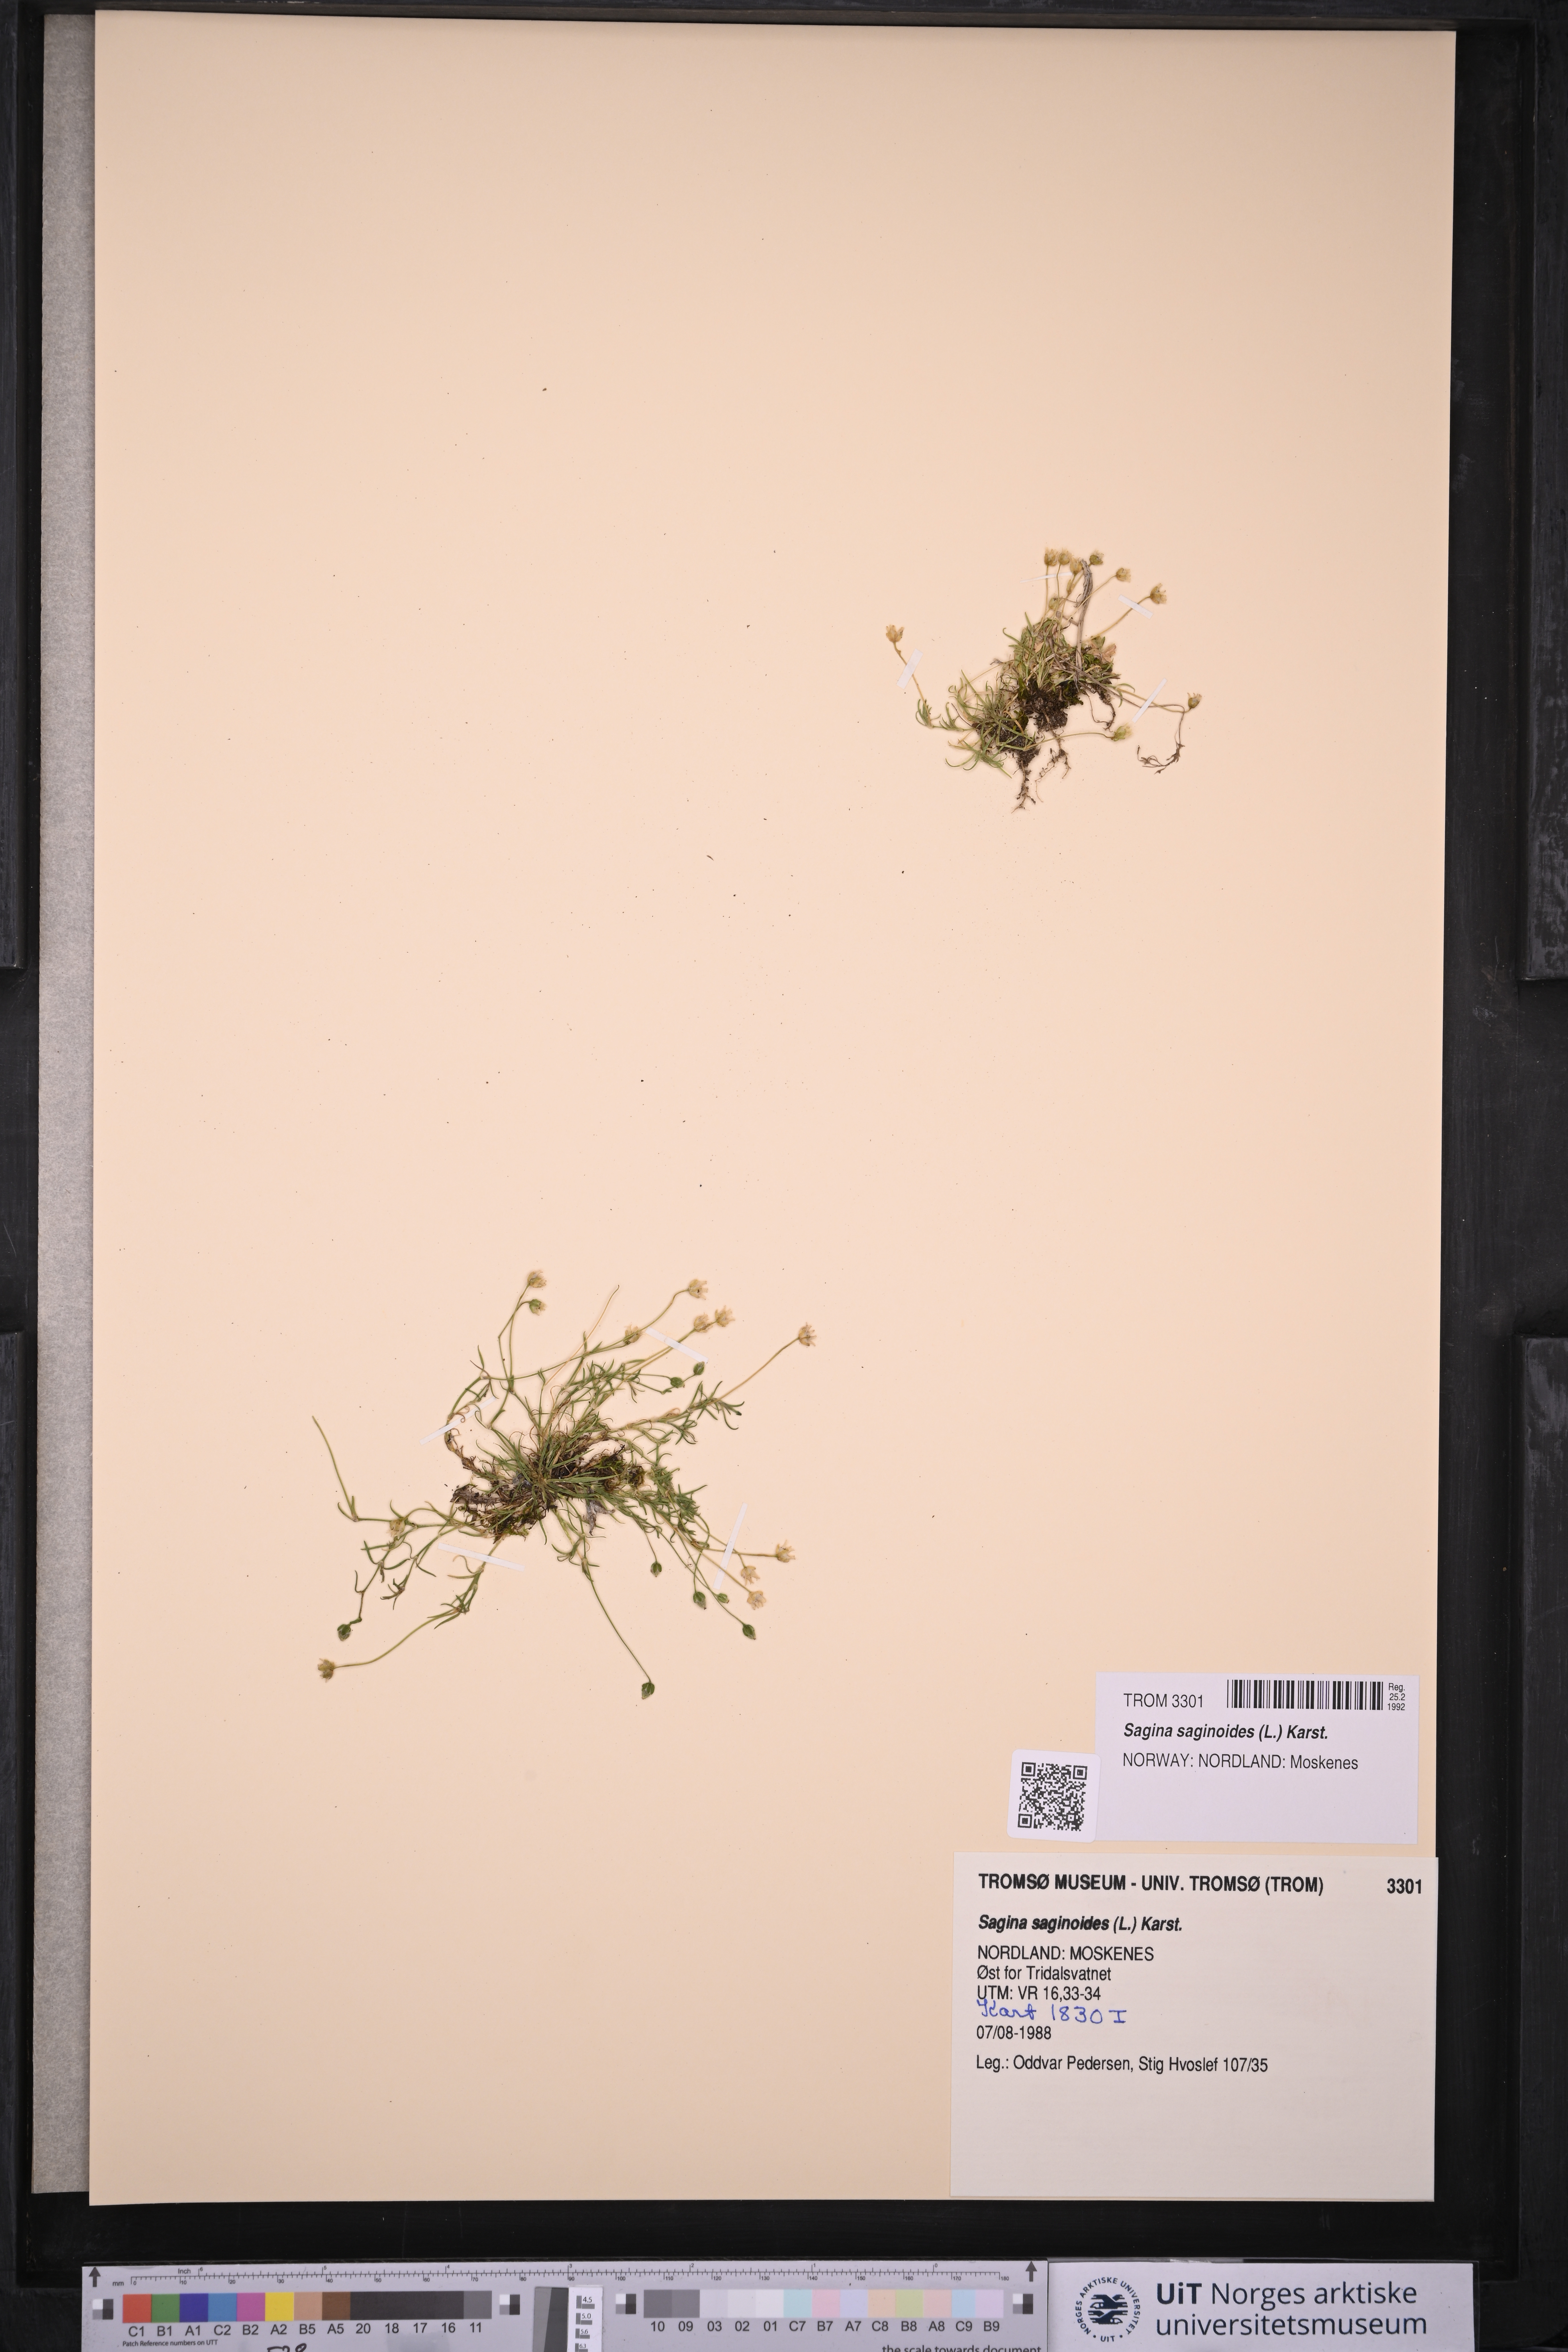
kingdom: Plantae
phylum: Tracheophyta
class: Magnoliopsida
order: Caryophyllales
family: Caryophyllaceae
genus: Sagina
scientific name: Sagina saginoides
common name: Alpine pearlwort
